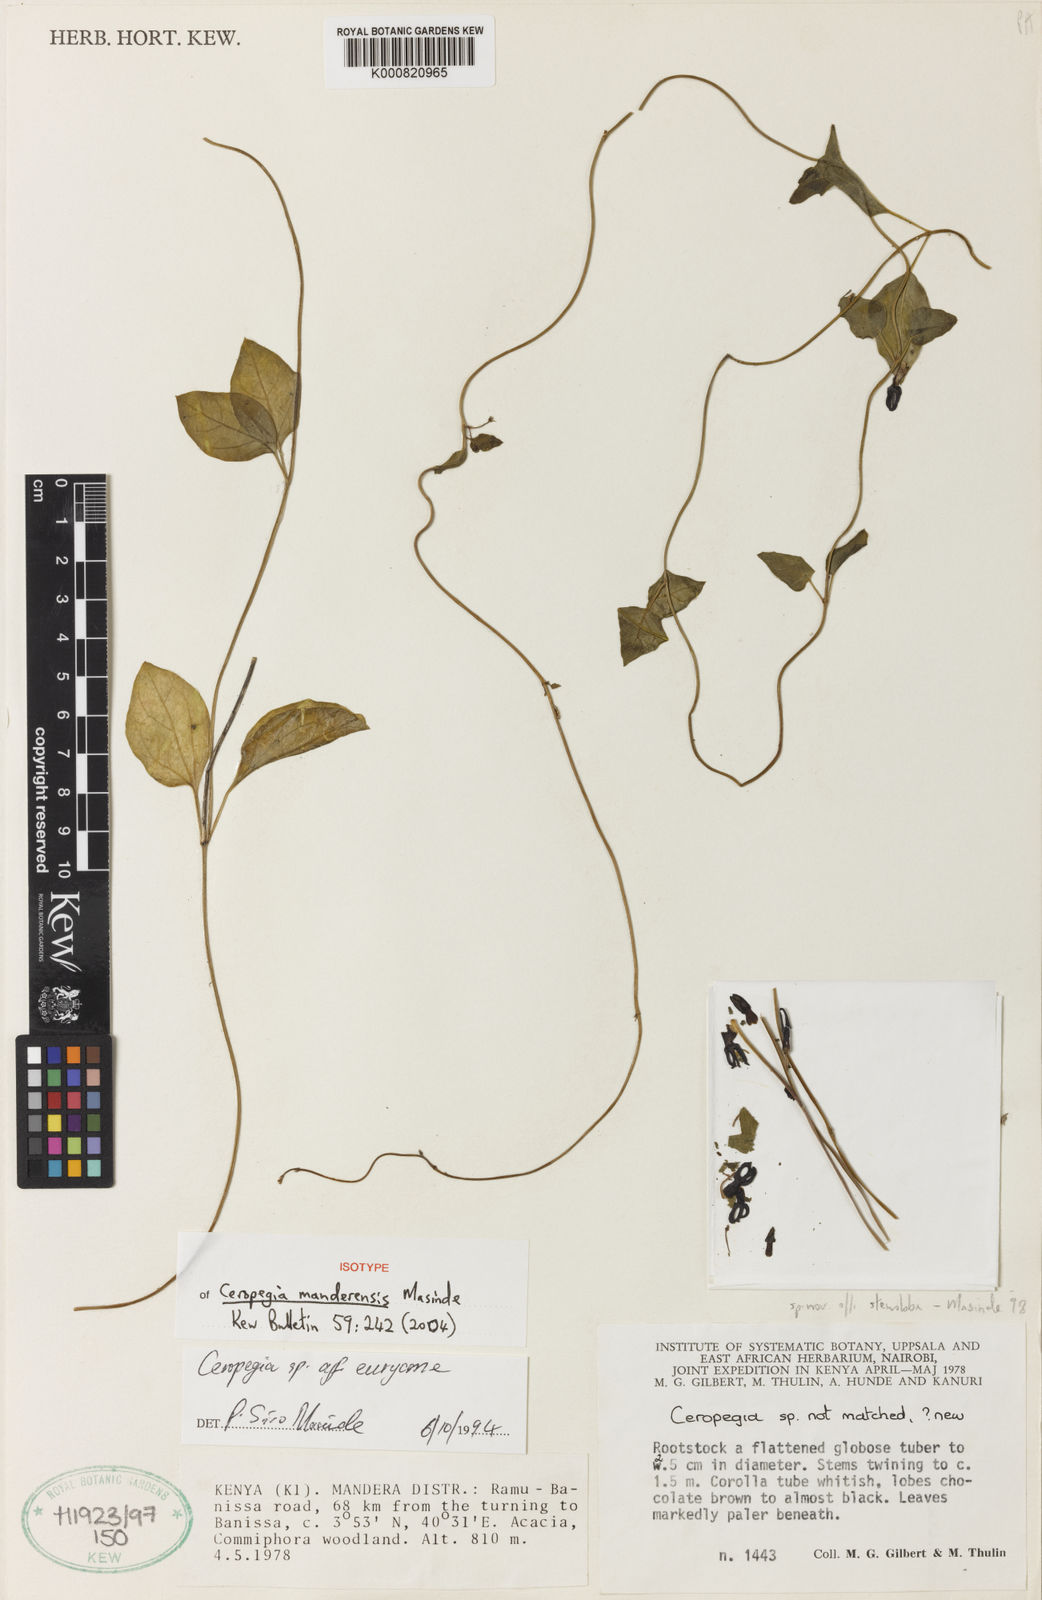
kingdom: Plantae
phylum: Tracheophyta
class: Magnoliopsida
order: Gentianales
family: Apocynaceae
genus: Ceropegia
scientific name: Ceropegia manderensis
